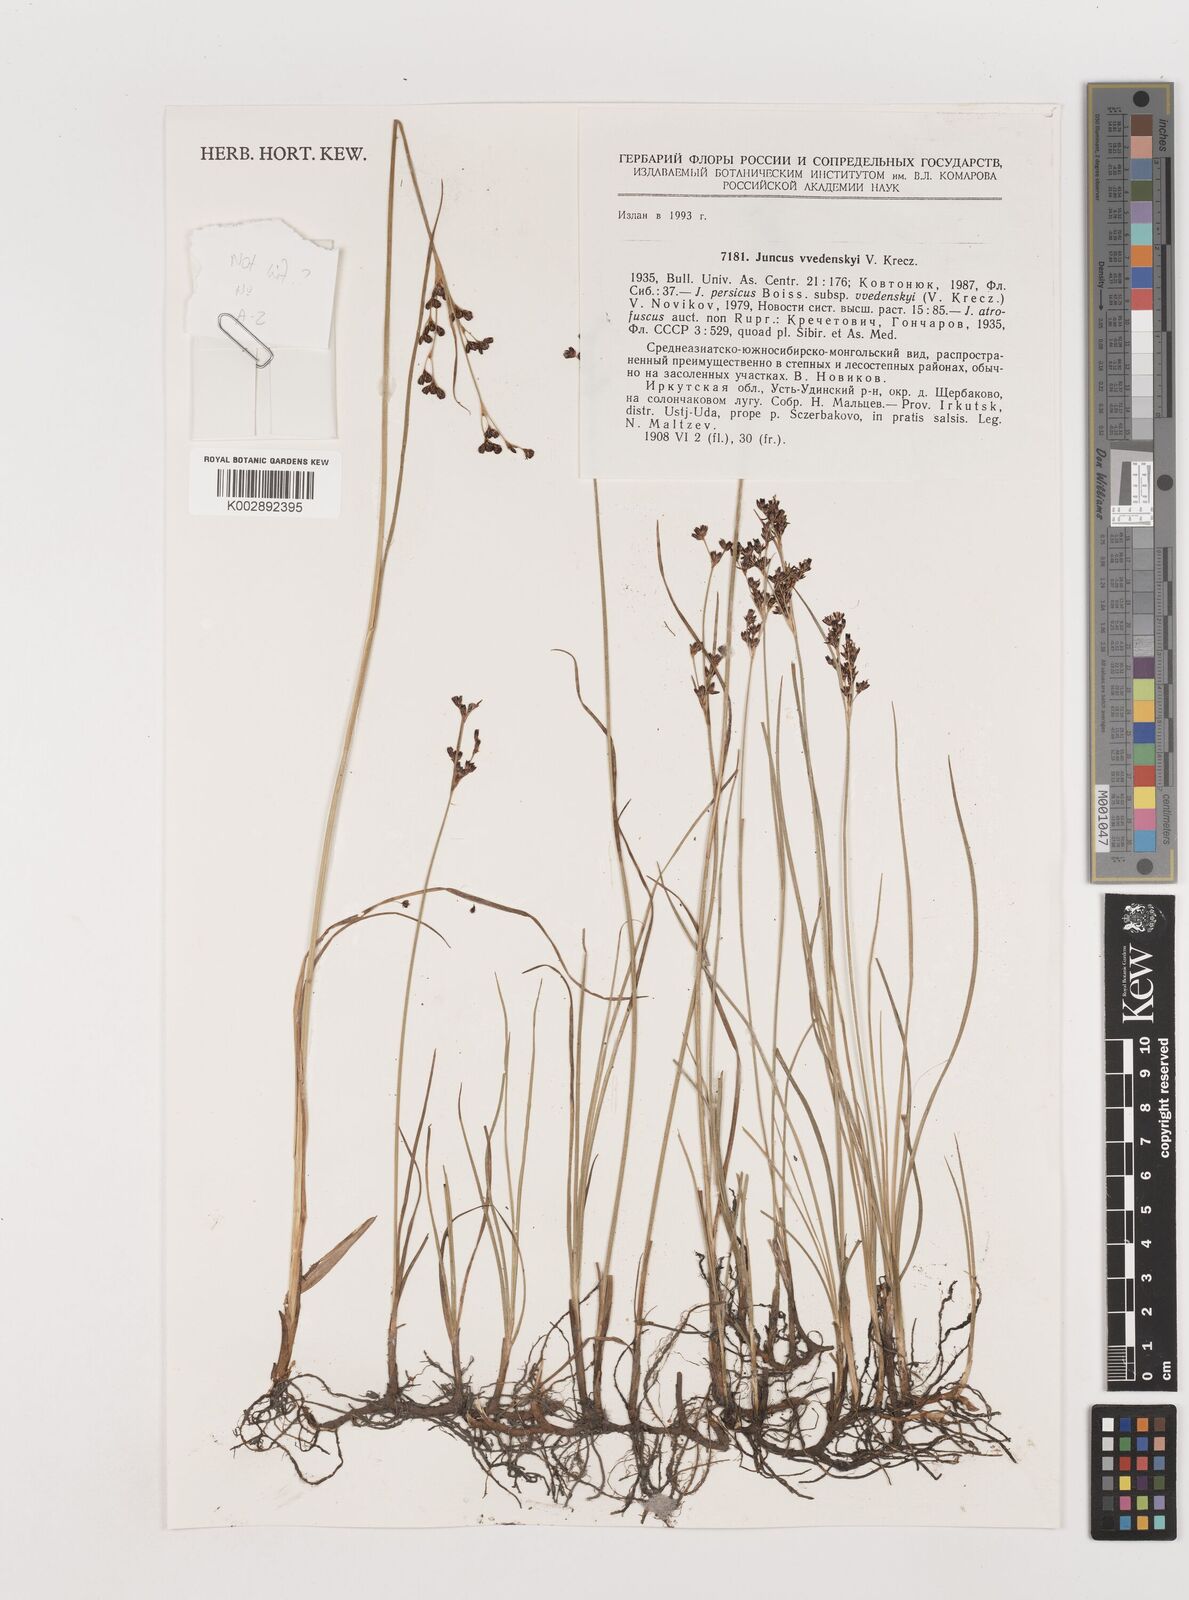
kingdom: Plantae
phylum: Tracheophyta
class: Liliopsida
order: Poales
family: Juncaceae
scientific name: Juncaceae
